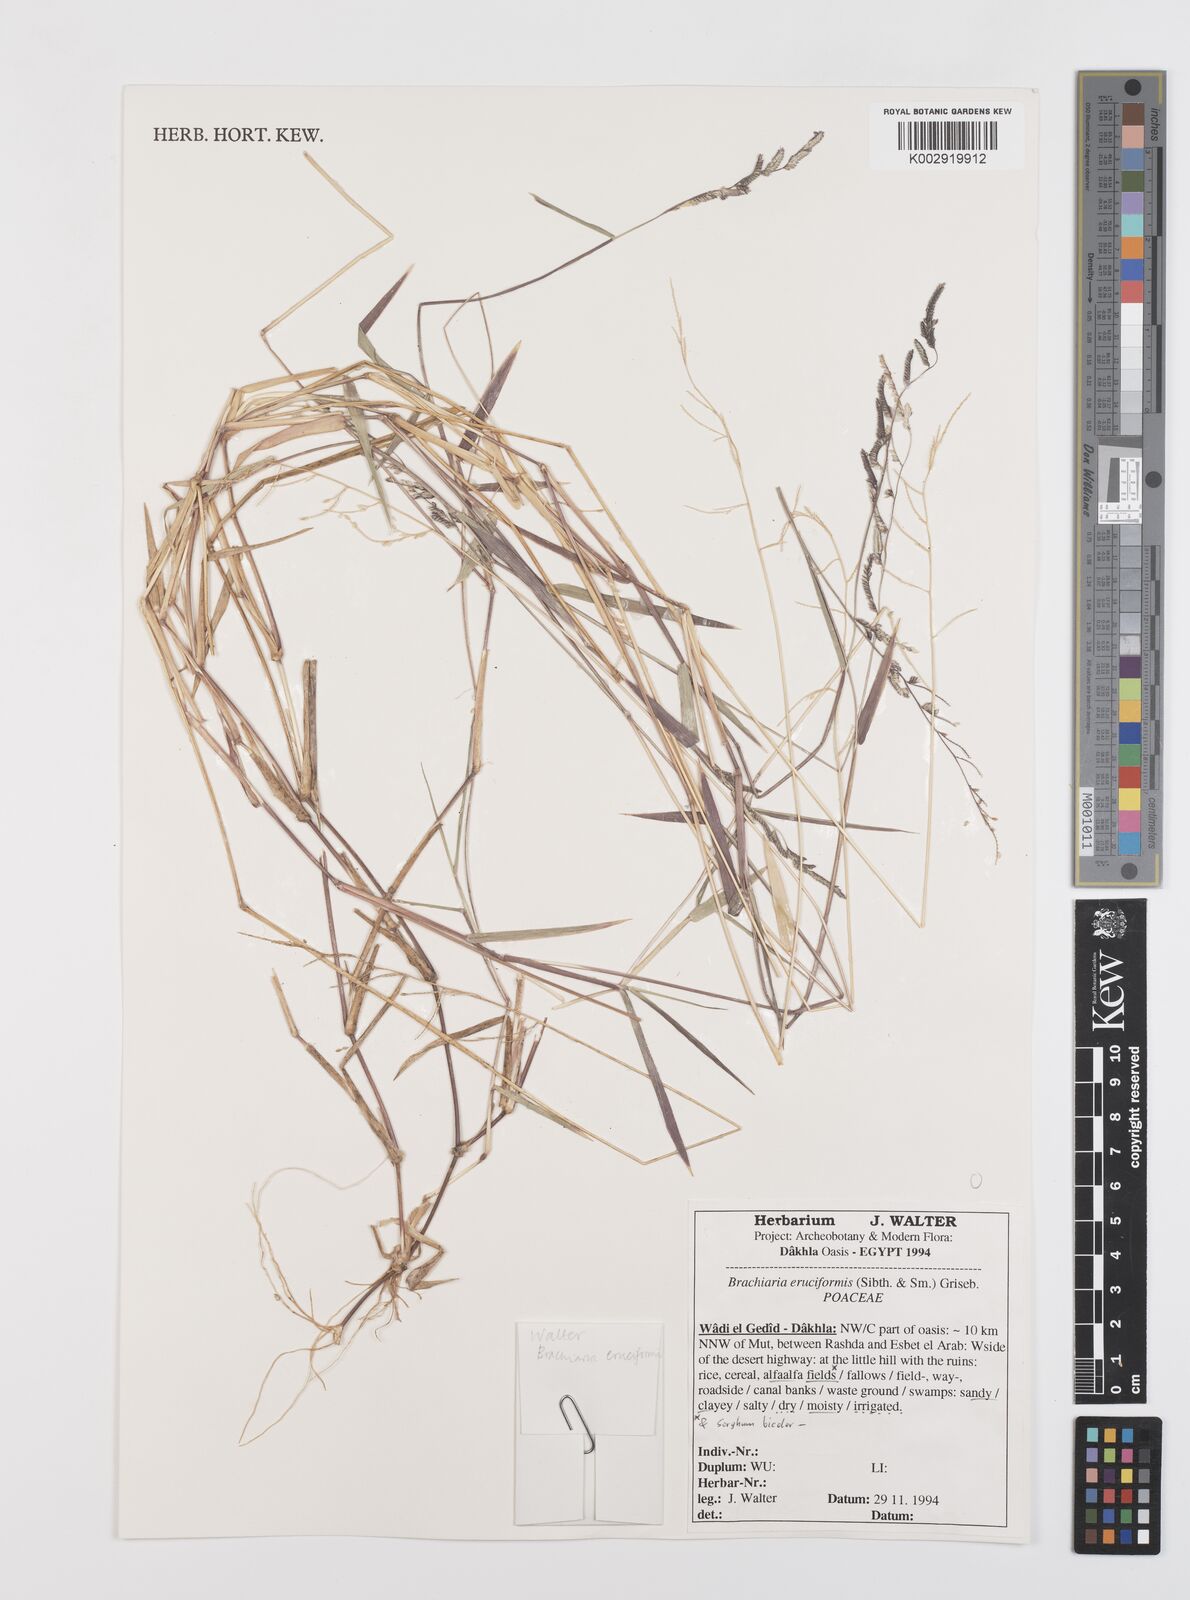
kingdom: Plantae
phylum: Tracheophyta
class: Liliopsida
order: Poales
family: Poaceae
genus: Moorochloa
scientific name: Moorochloa eruciformis
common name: Sweet signalgrass
